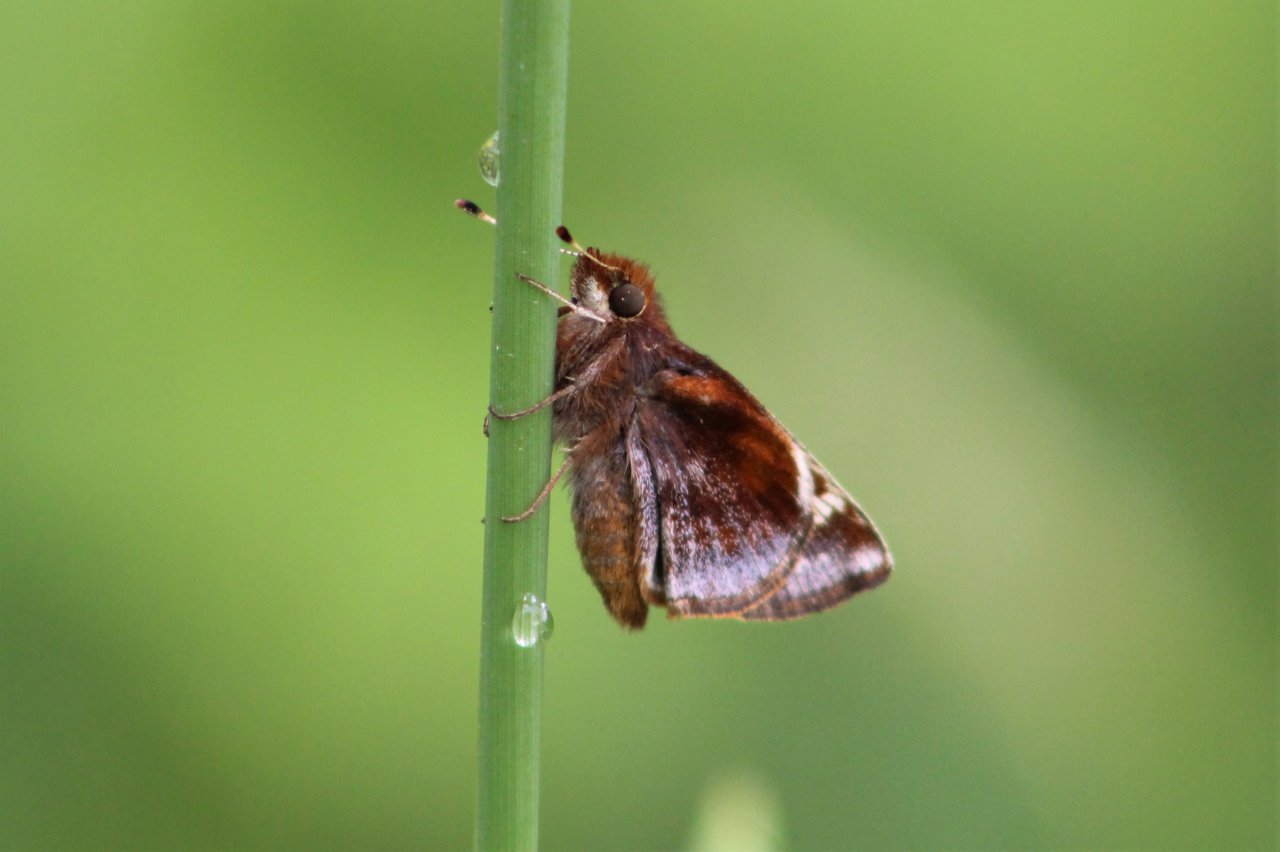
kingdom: Animalia
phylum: Arthropoda
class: Insecta
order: Lepidoptera
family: Hesperiidae
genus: Lon
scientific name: Lon zabulon
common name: Zabulon Skipper
